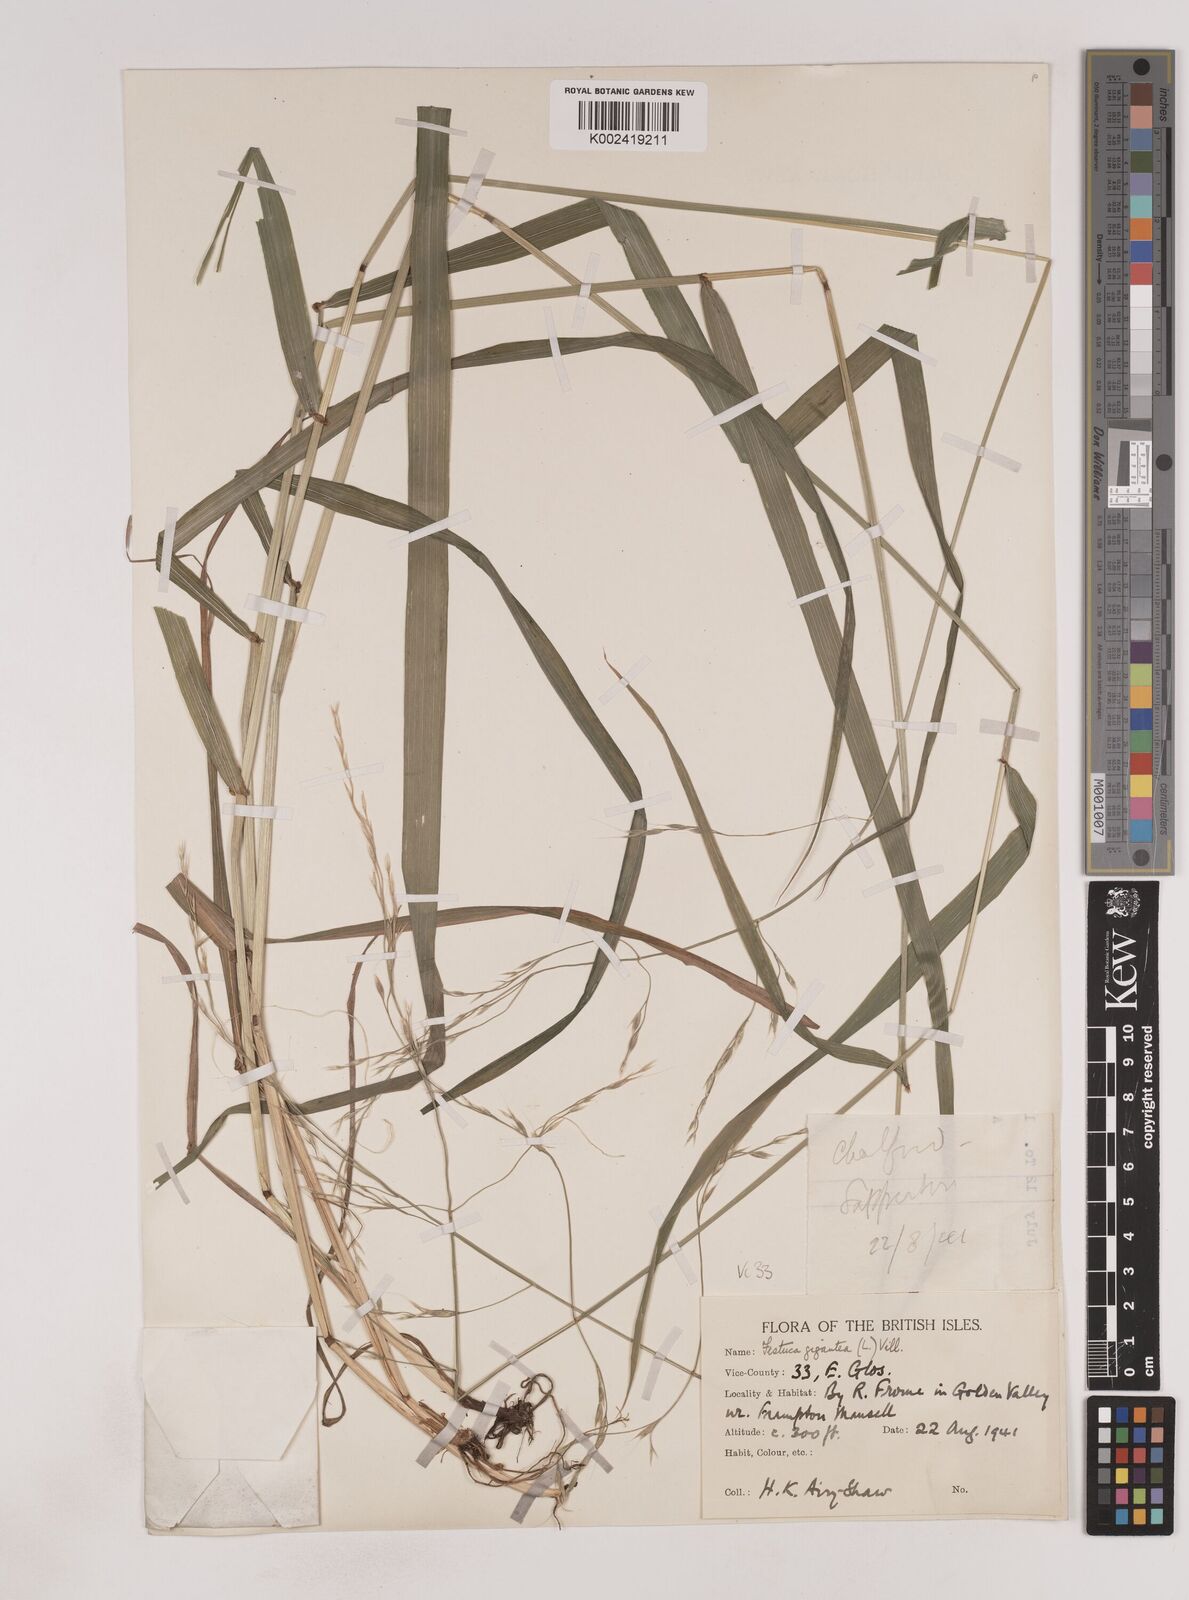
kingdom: Plantae
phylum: Tracheophyta
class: Liliopsida
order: Poales
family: Poaceae
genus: Lolium
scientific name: Lolium giganteum
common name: Giant fescue
